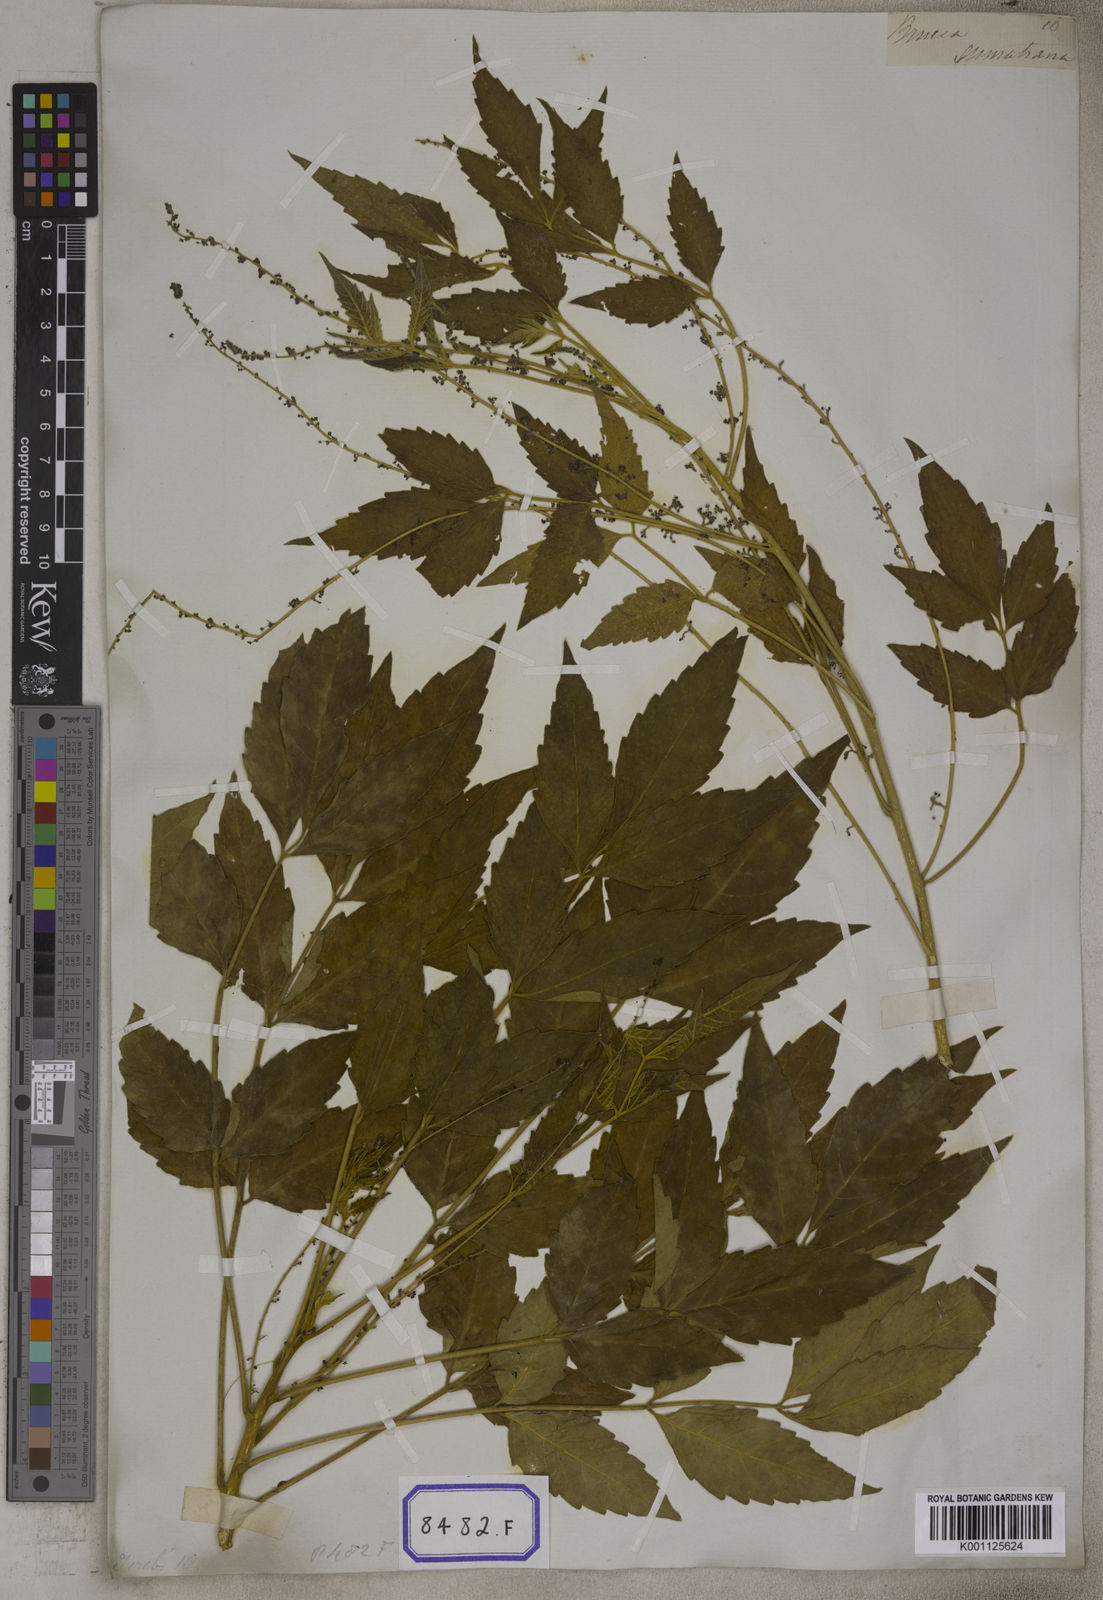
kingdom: Plantae
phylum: Tracheophyta
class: Magnoliopsida
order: Sapindales
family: Simaroubaceae
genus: Brucea
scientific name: Brucea javanica
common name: Macassar kernels
